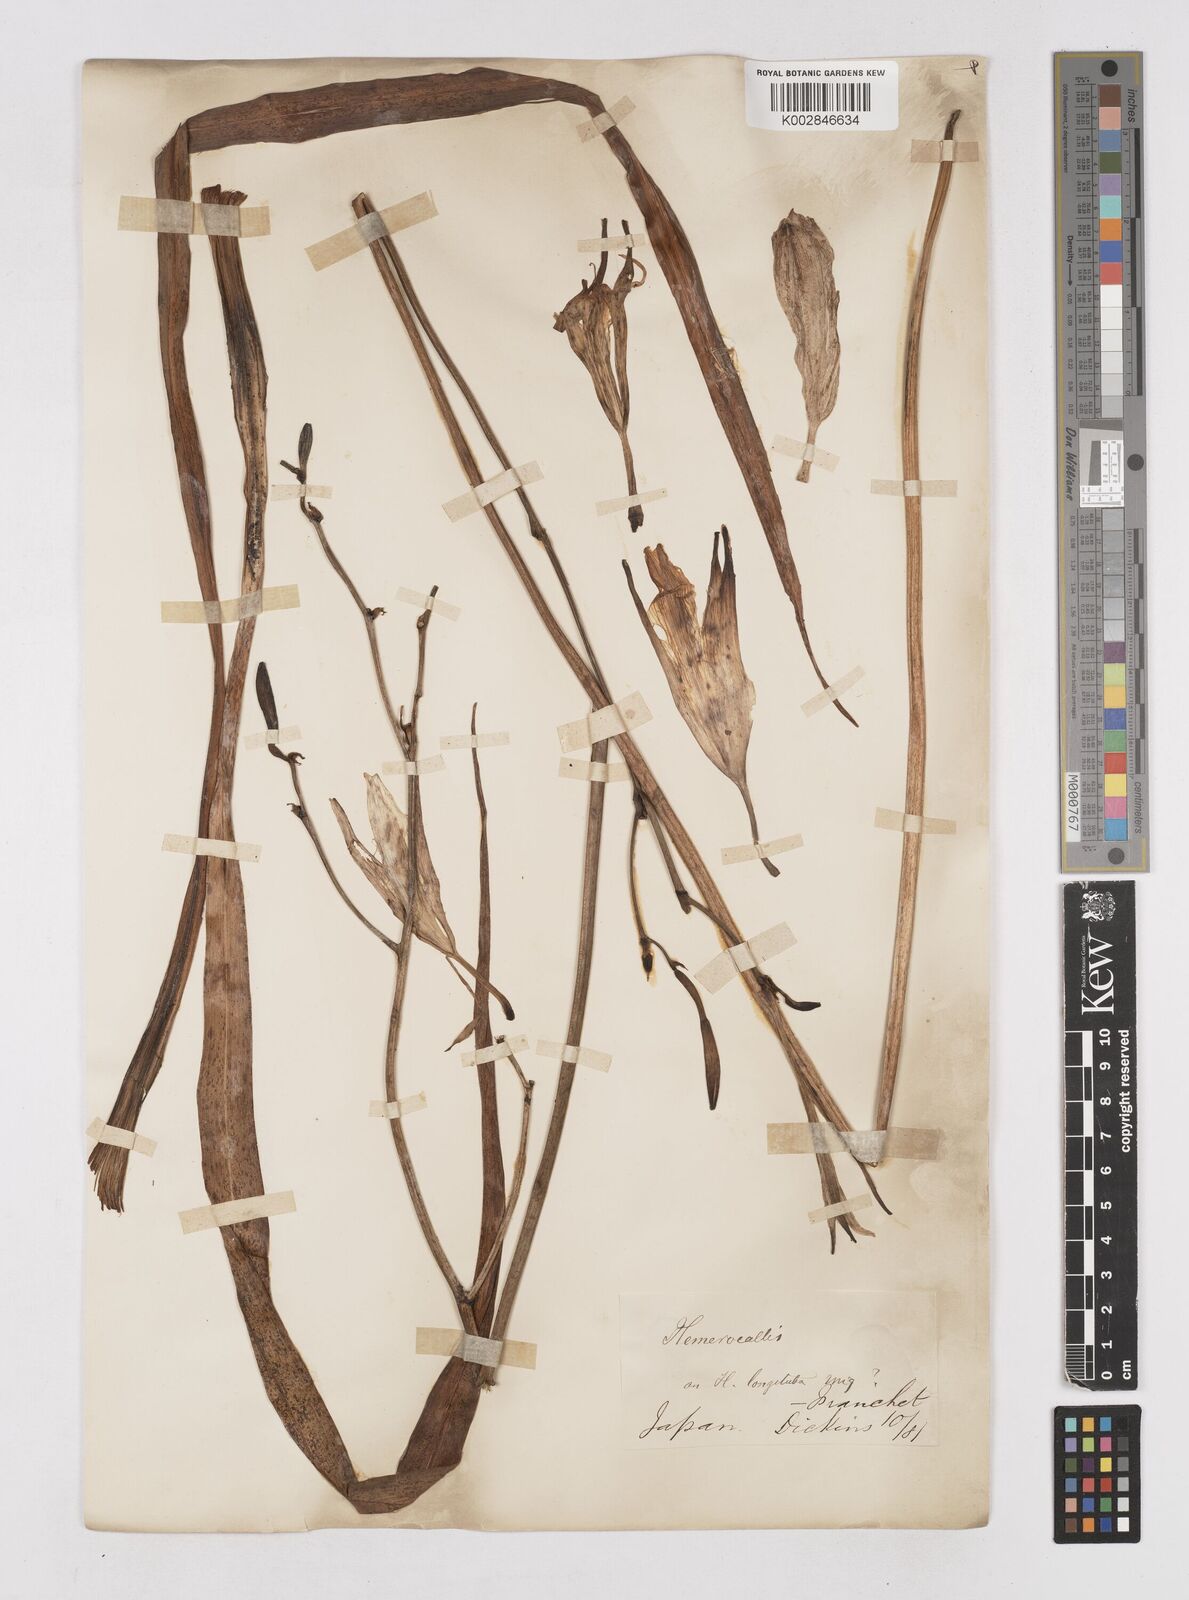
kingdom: Plantae
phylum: Tracheophyta
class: Liliopsida
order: Asparagales
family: Asphodelaceae
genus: Hemerocallis
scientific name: Hemerocallis
